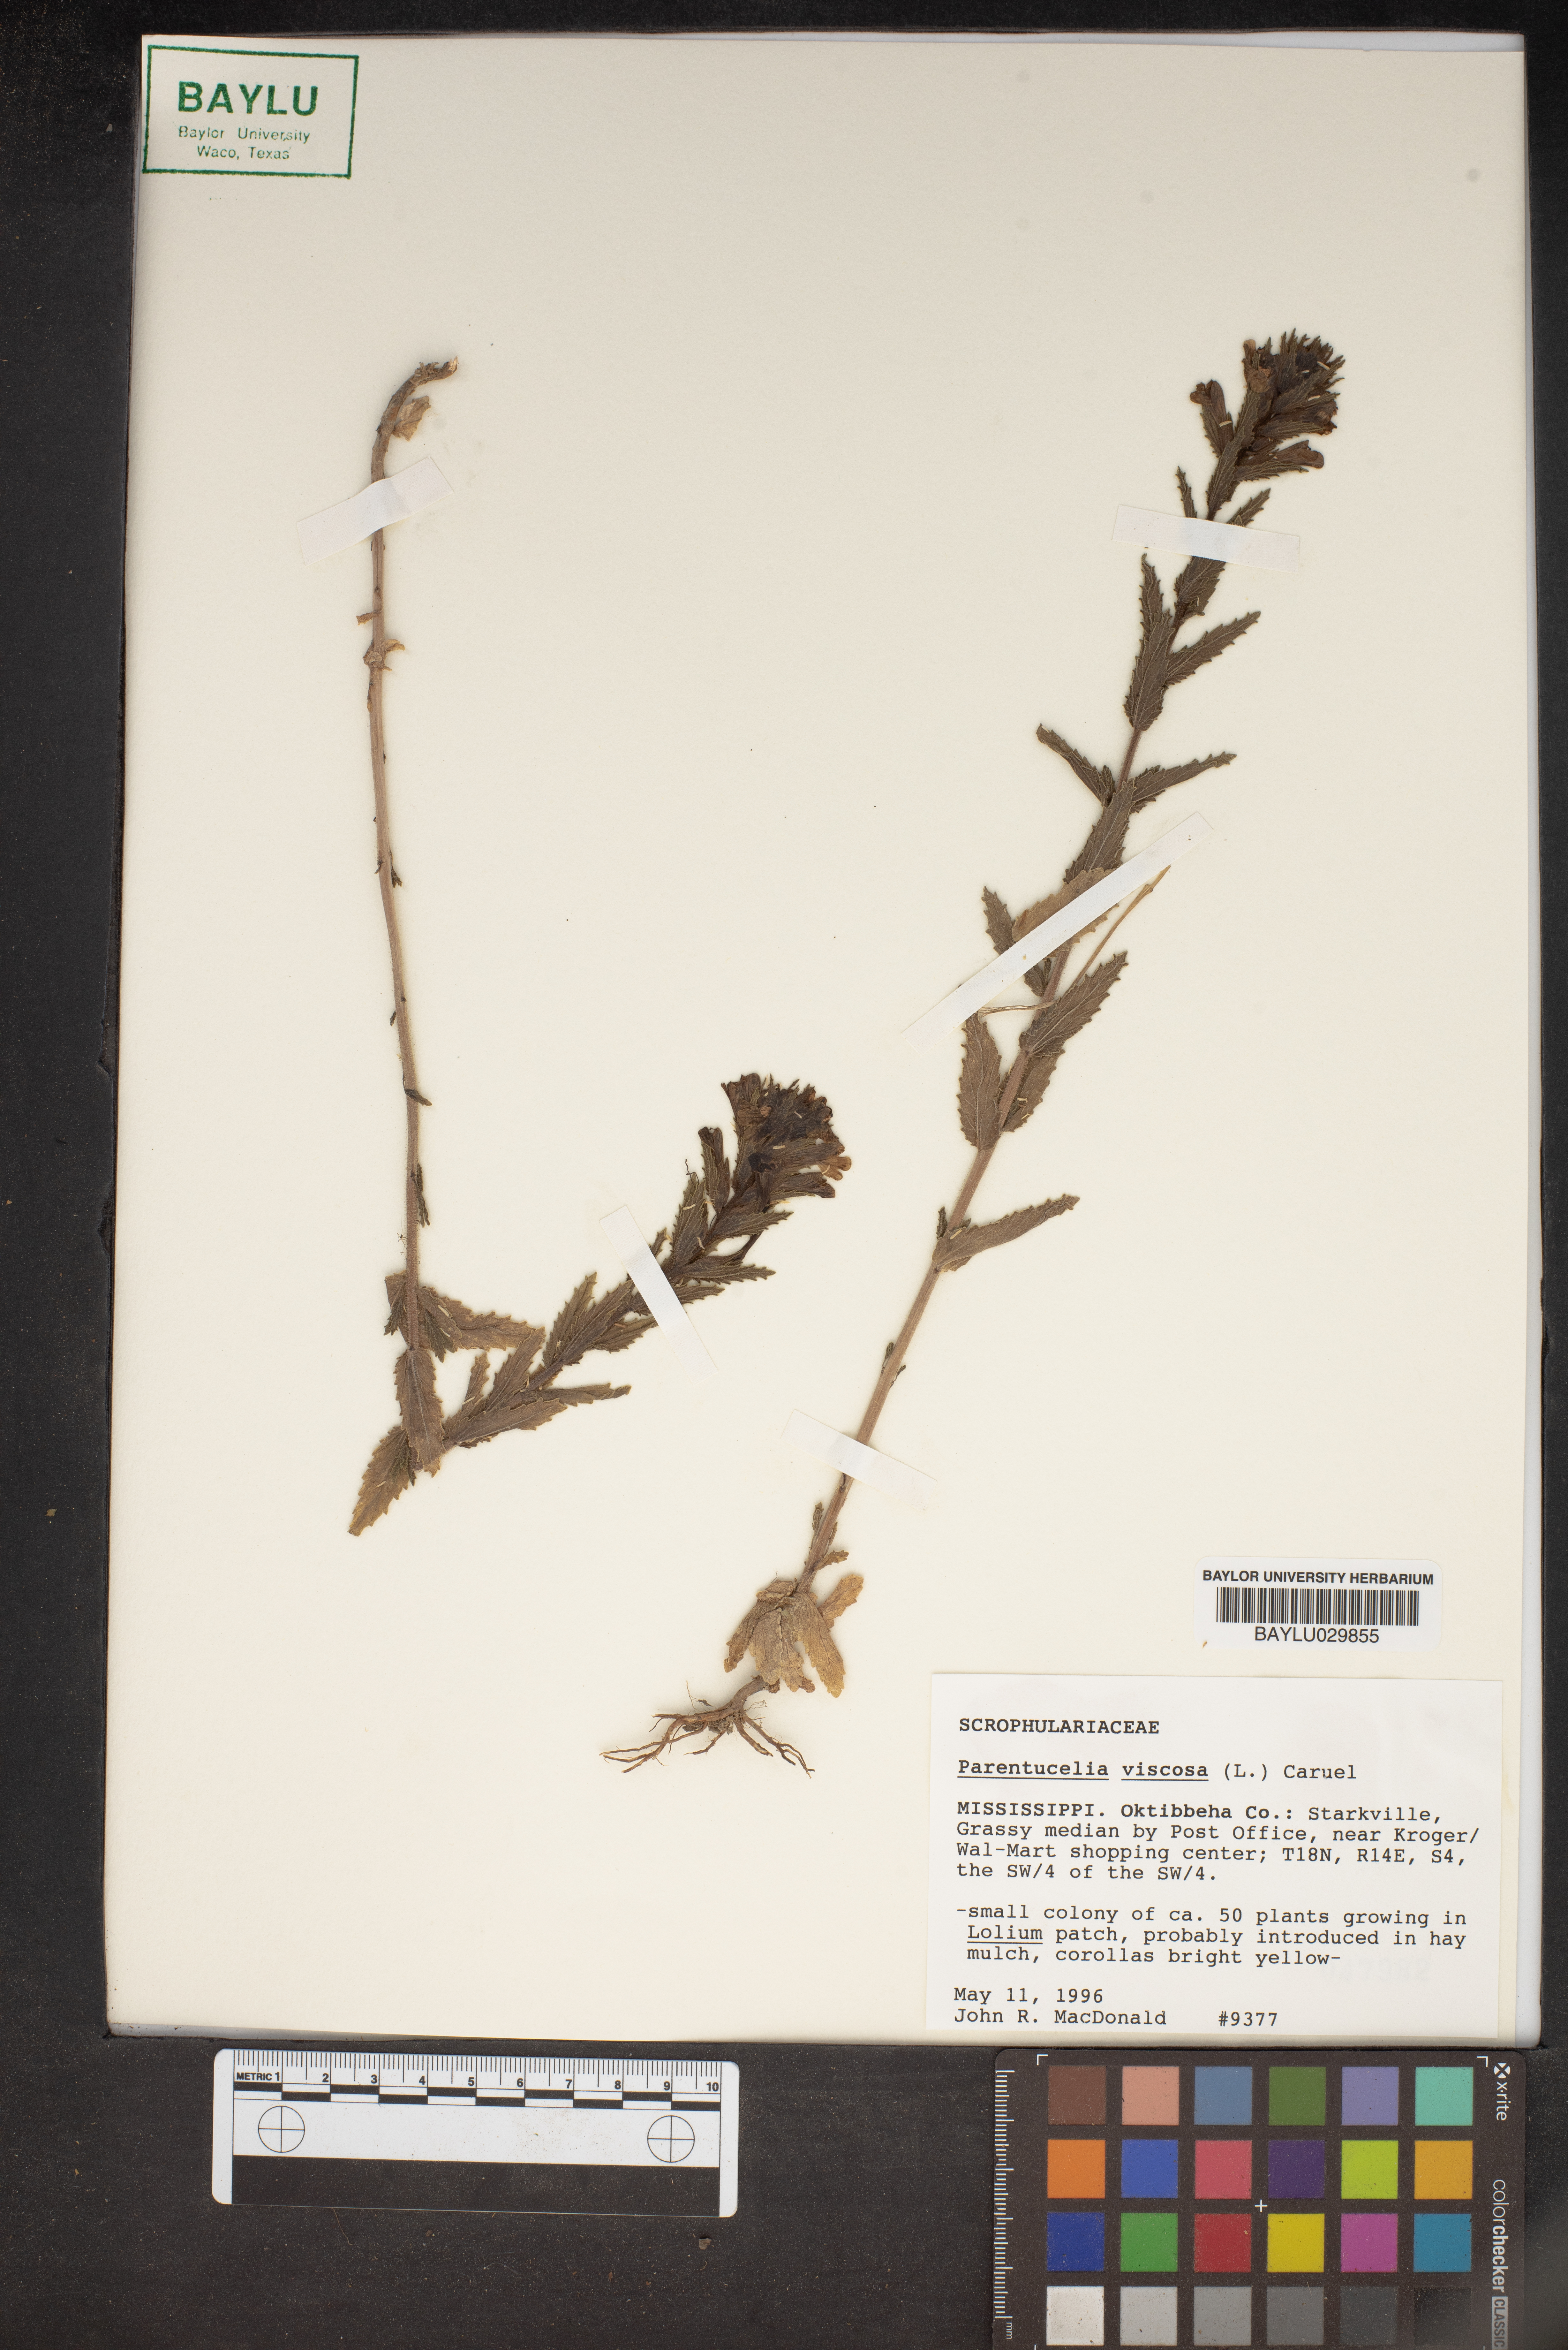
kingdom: Plantae
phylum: Tracheophyta
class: Magnoliopsida
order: Lamiales
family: Orobanchaceae
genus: Bellardia
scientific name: Bellardia viscosa
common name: Sticky parentucellia
